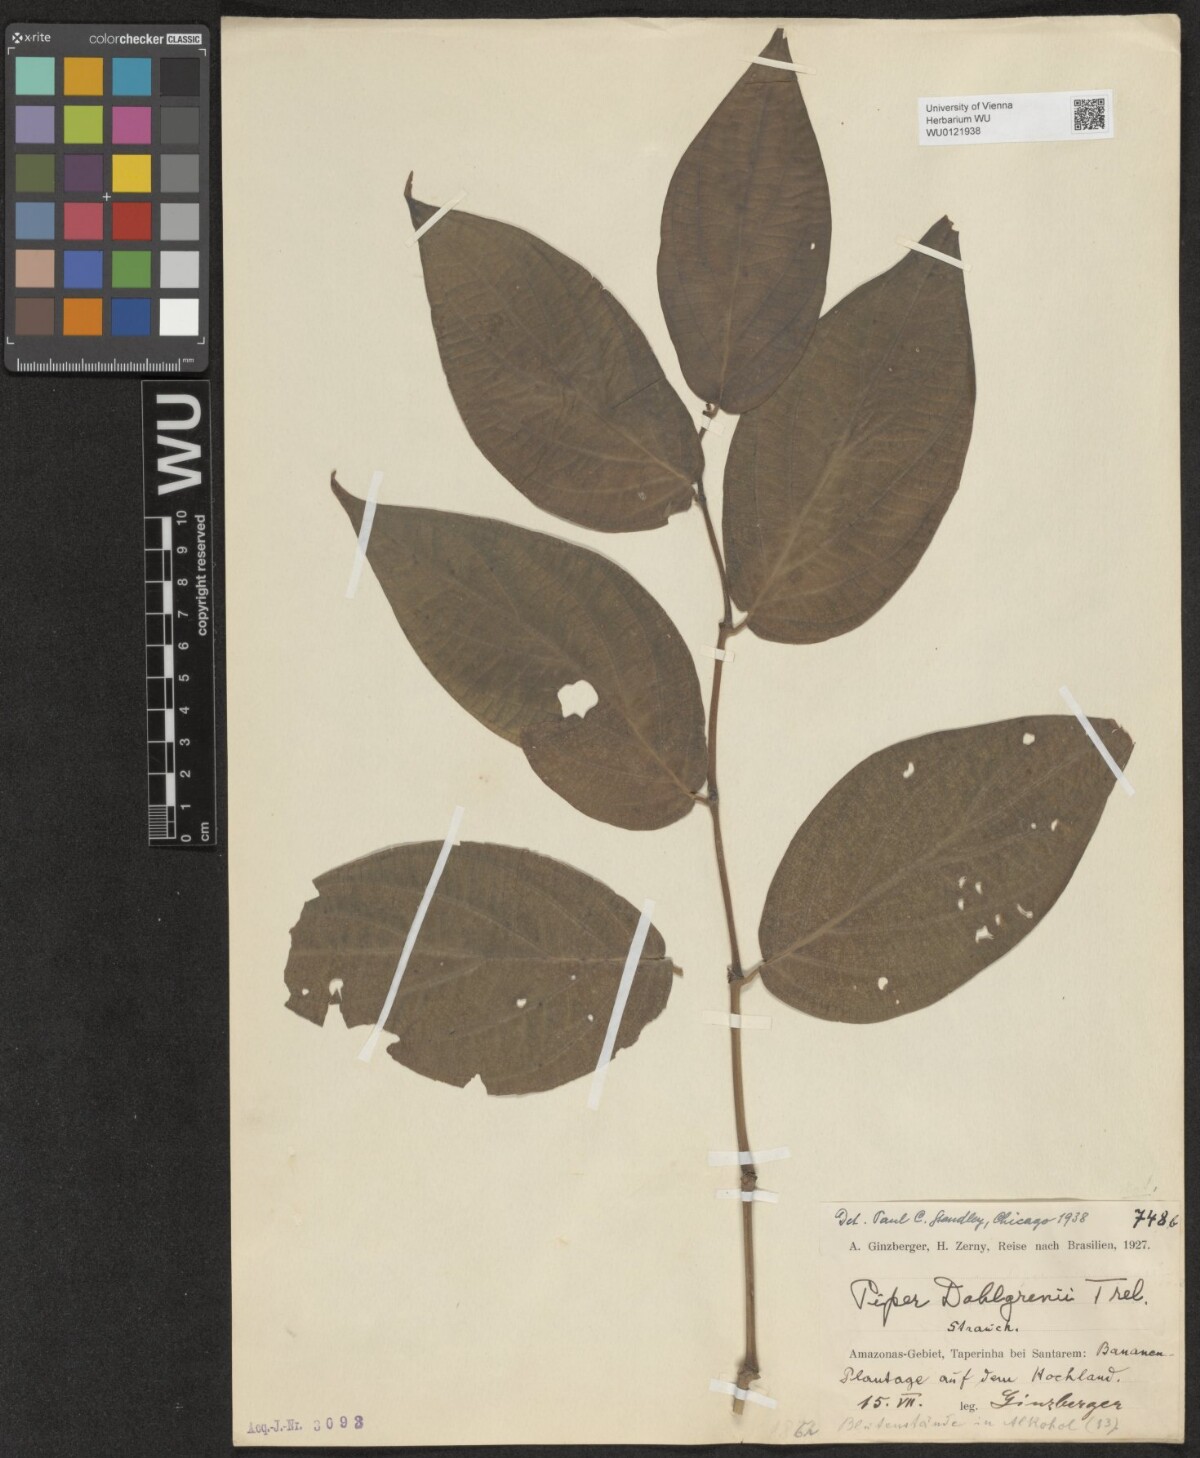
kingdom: Plantae
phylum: Tracheophyta
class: Magnoliopsida
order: Piperales
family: Piperaceae
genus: Piper
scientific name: Piper
